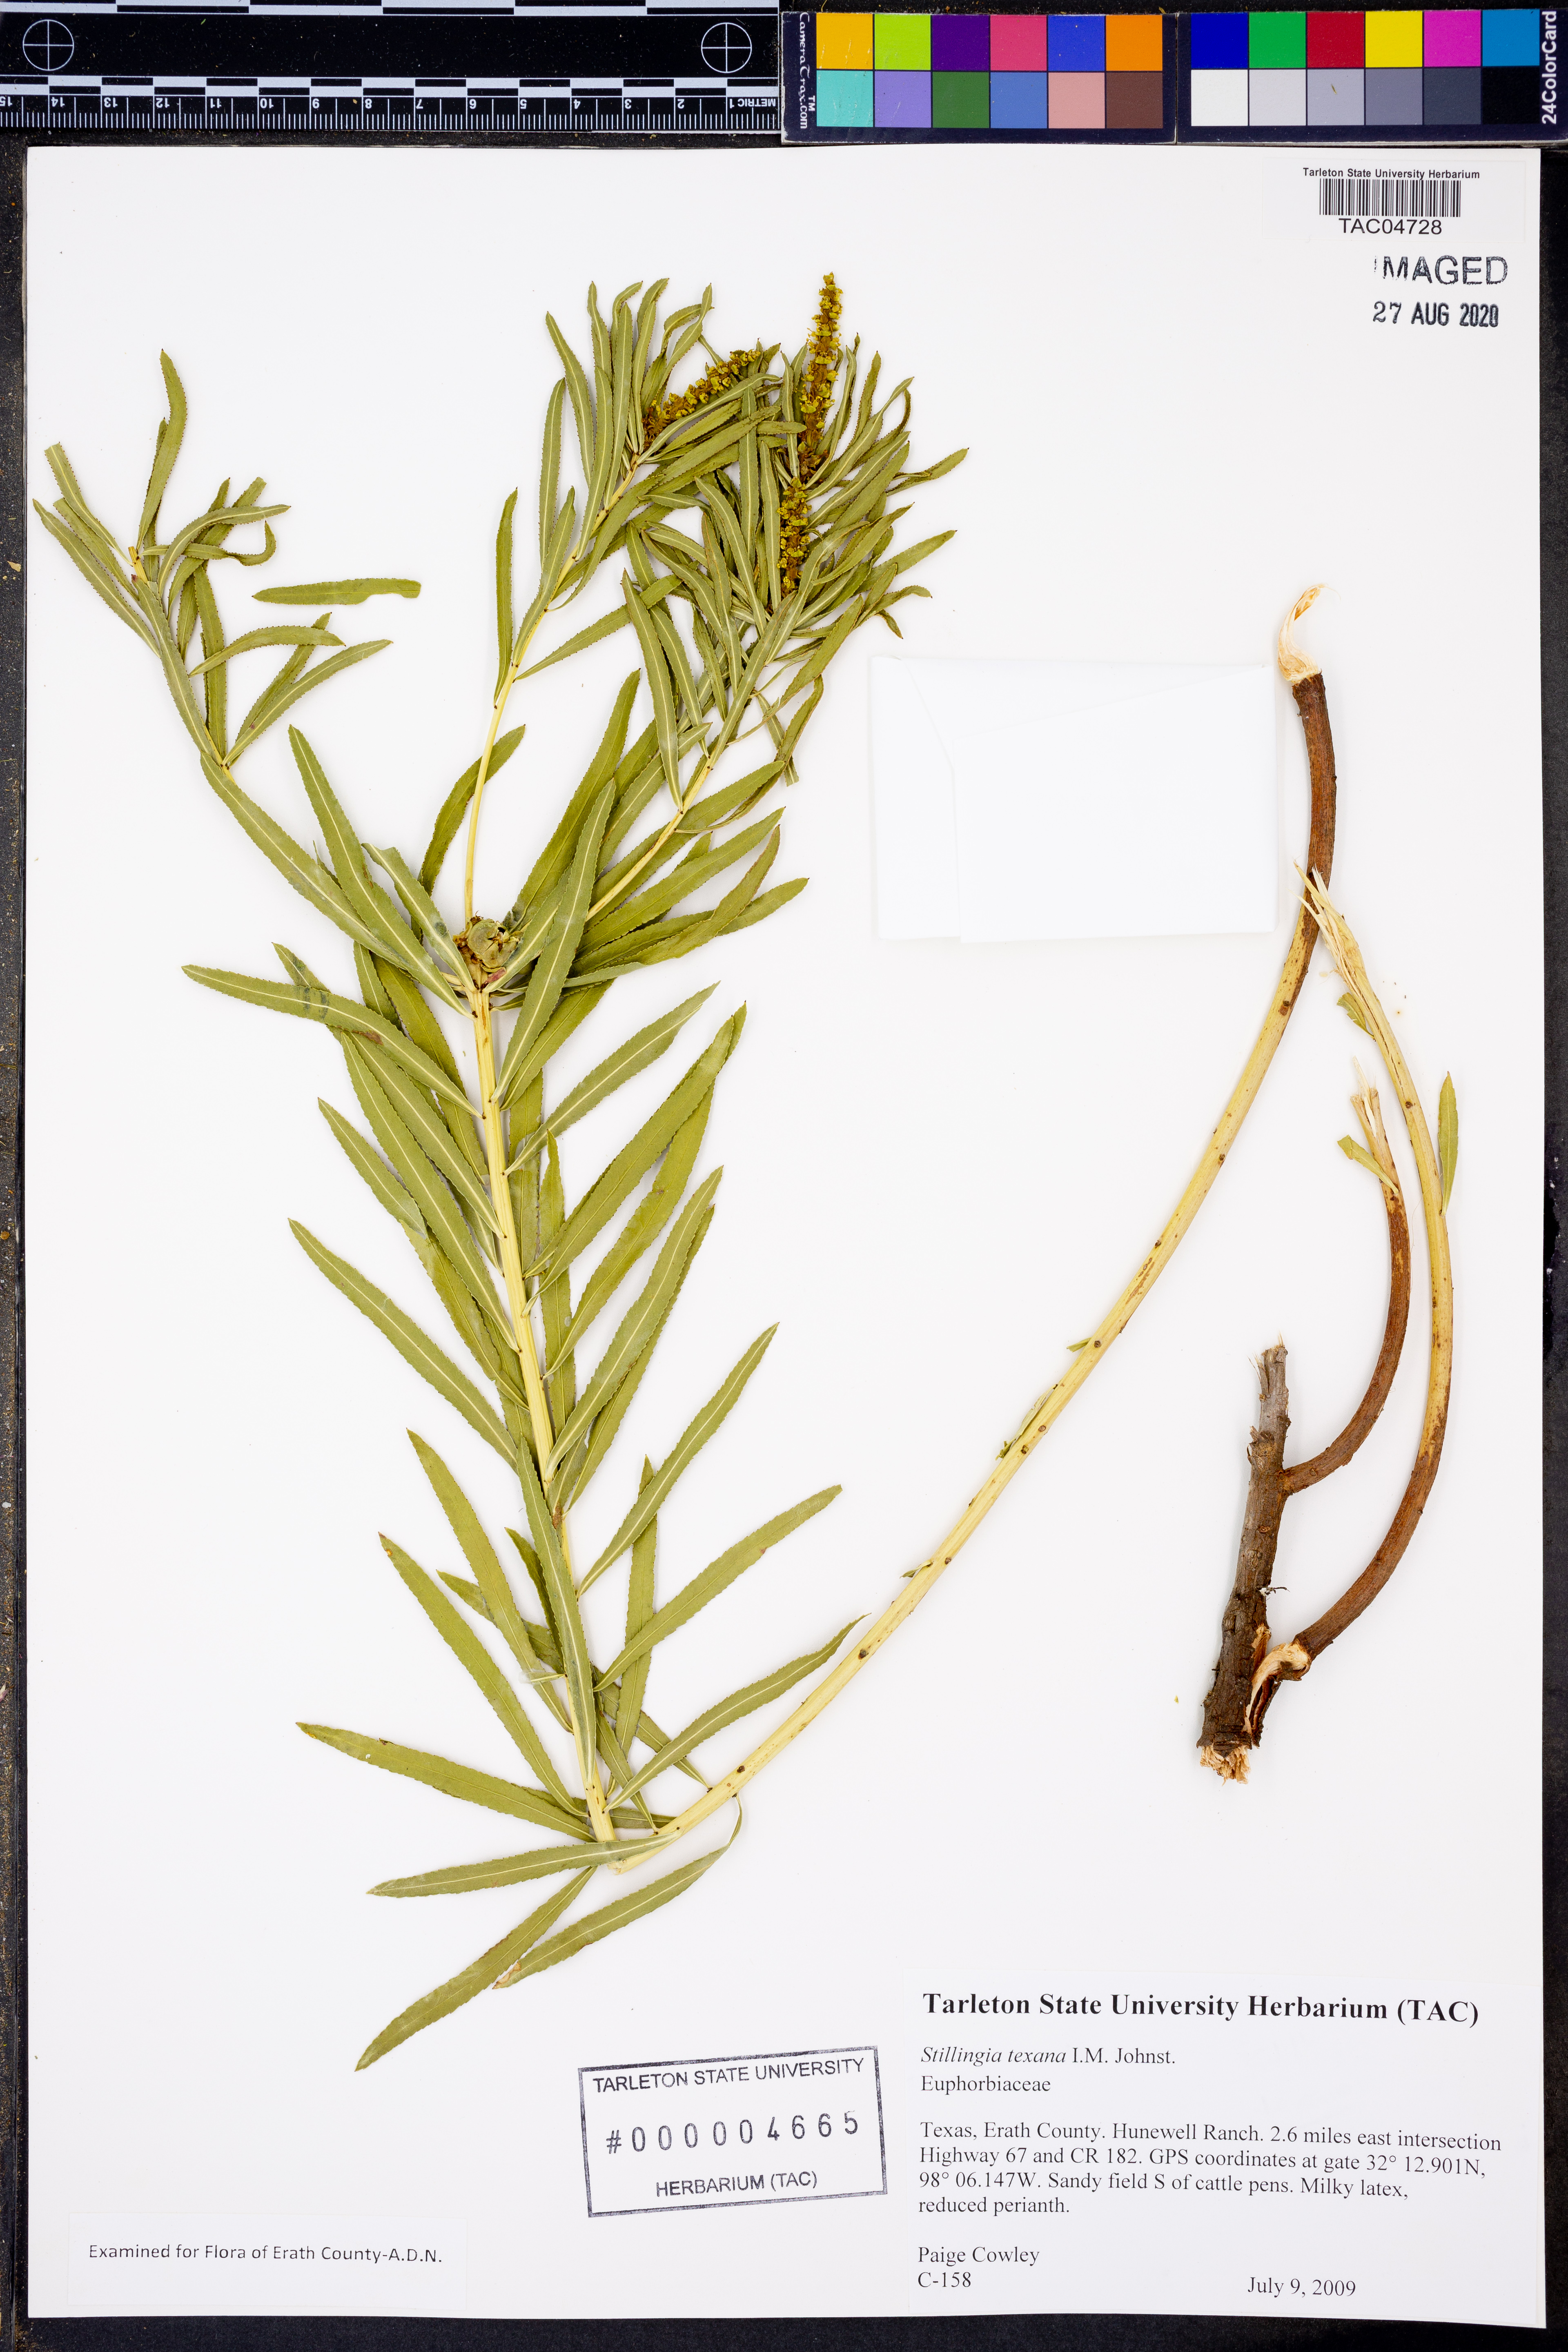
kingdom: Plantae
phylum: Tracheophyta
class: Magnoliopsida
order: Malpighiales
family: Euphorbiaceae
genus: Stillingia
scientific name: Stillingia texana
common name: Texas stillingia
